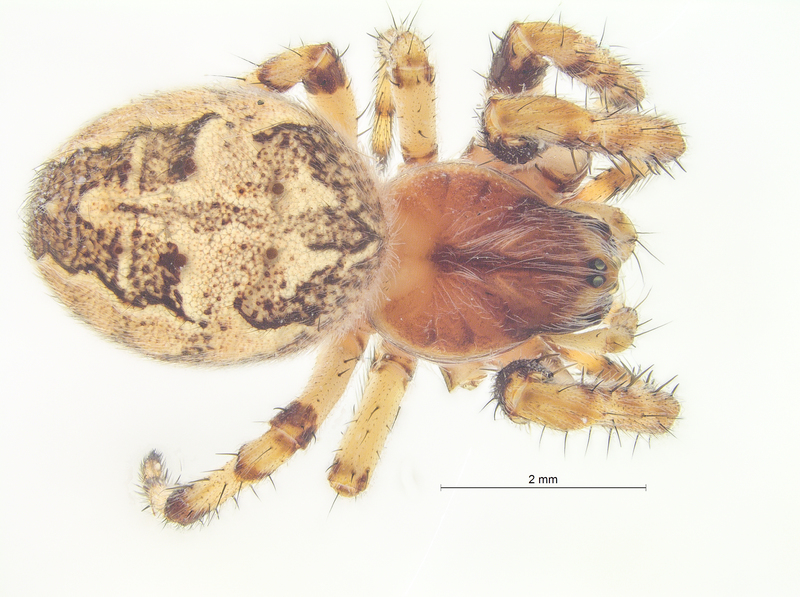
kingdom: Animalia
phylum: Arthropoda
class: Arachnida
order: Araneae
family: Araneidae
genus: Larinioides
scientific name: Larinioides cornutus
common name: Furrow orbweaver
